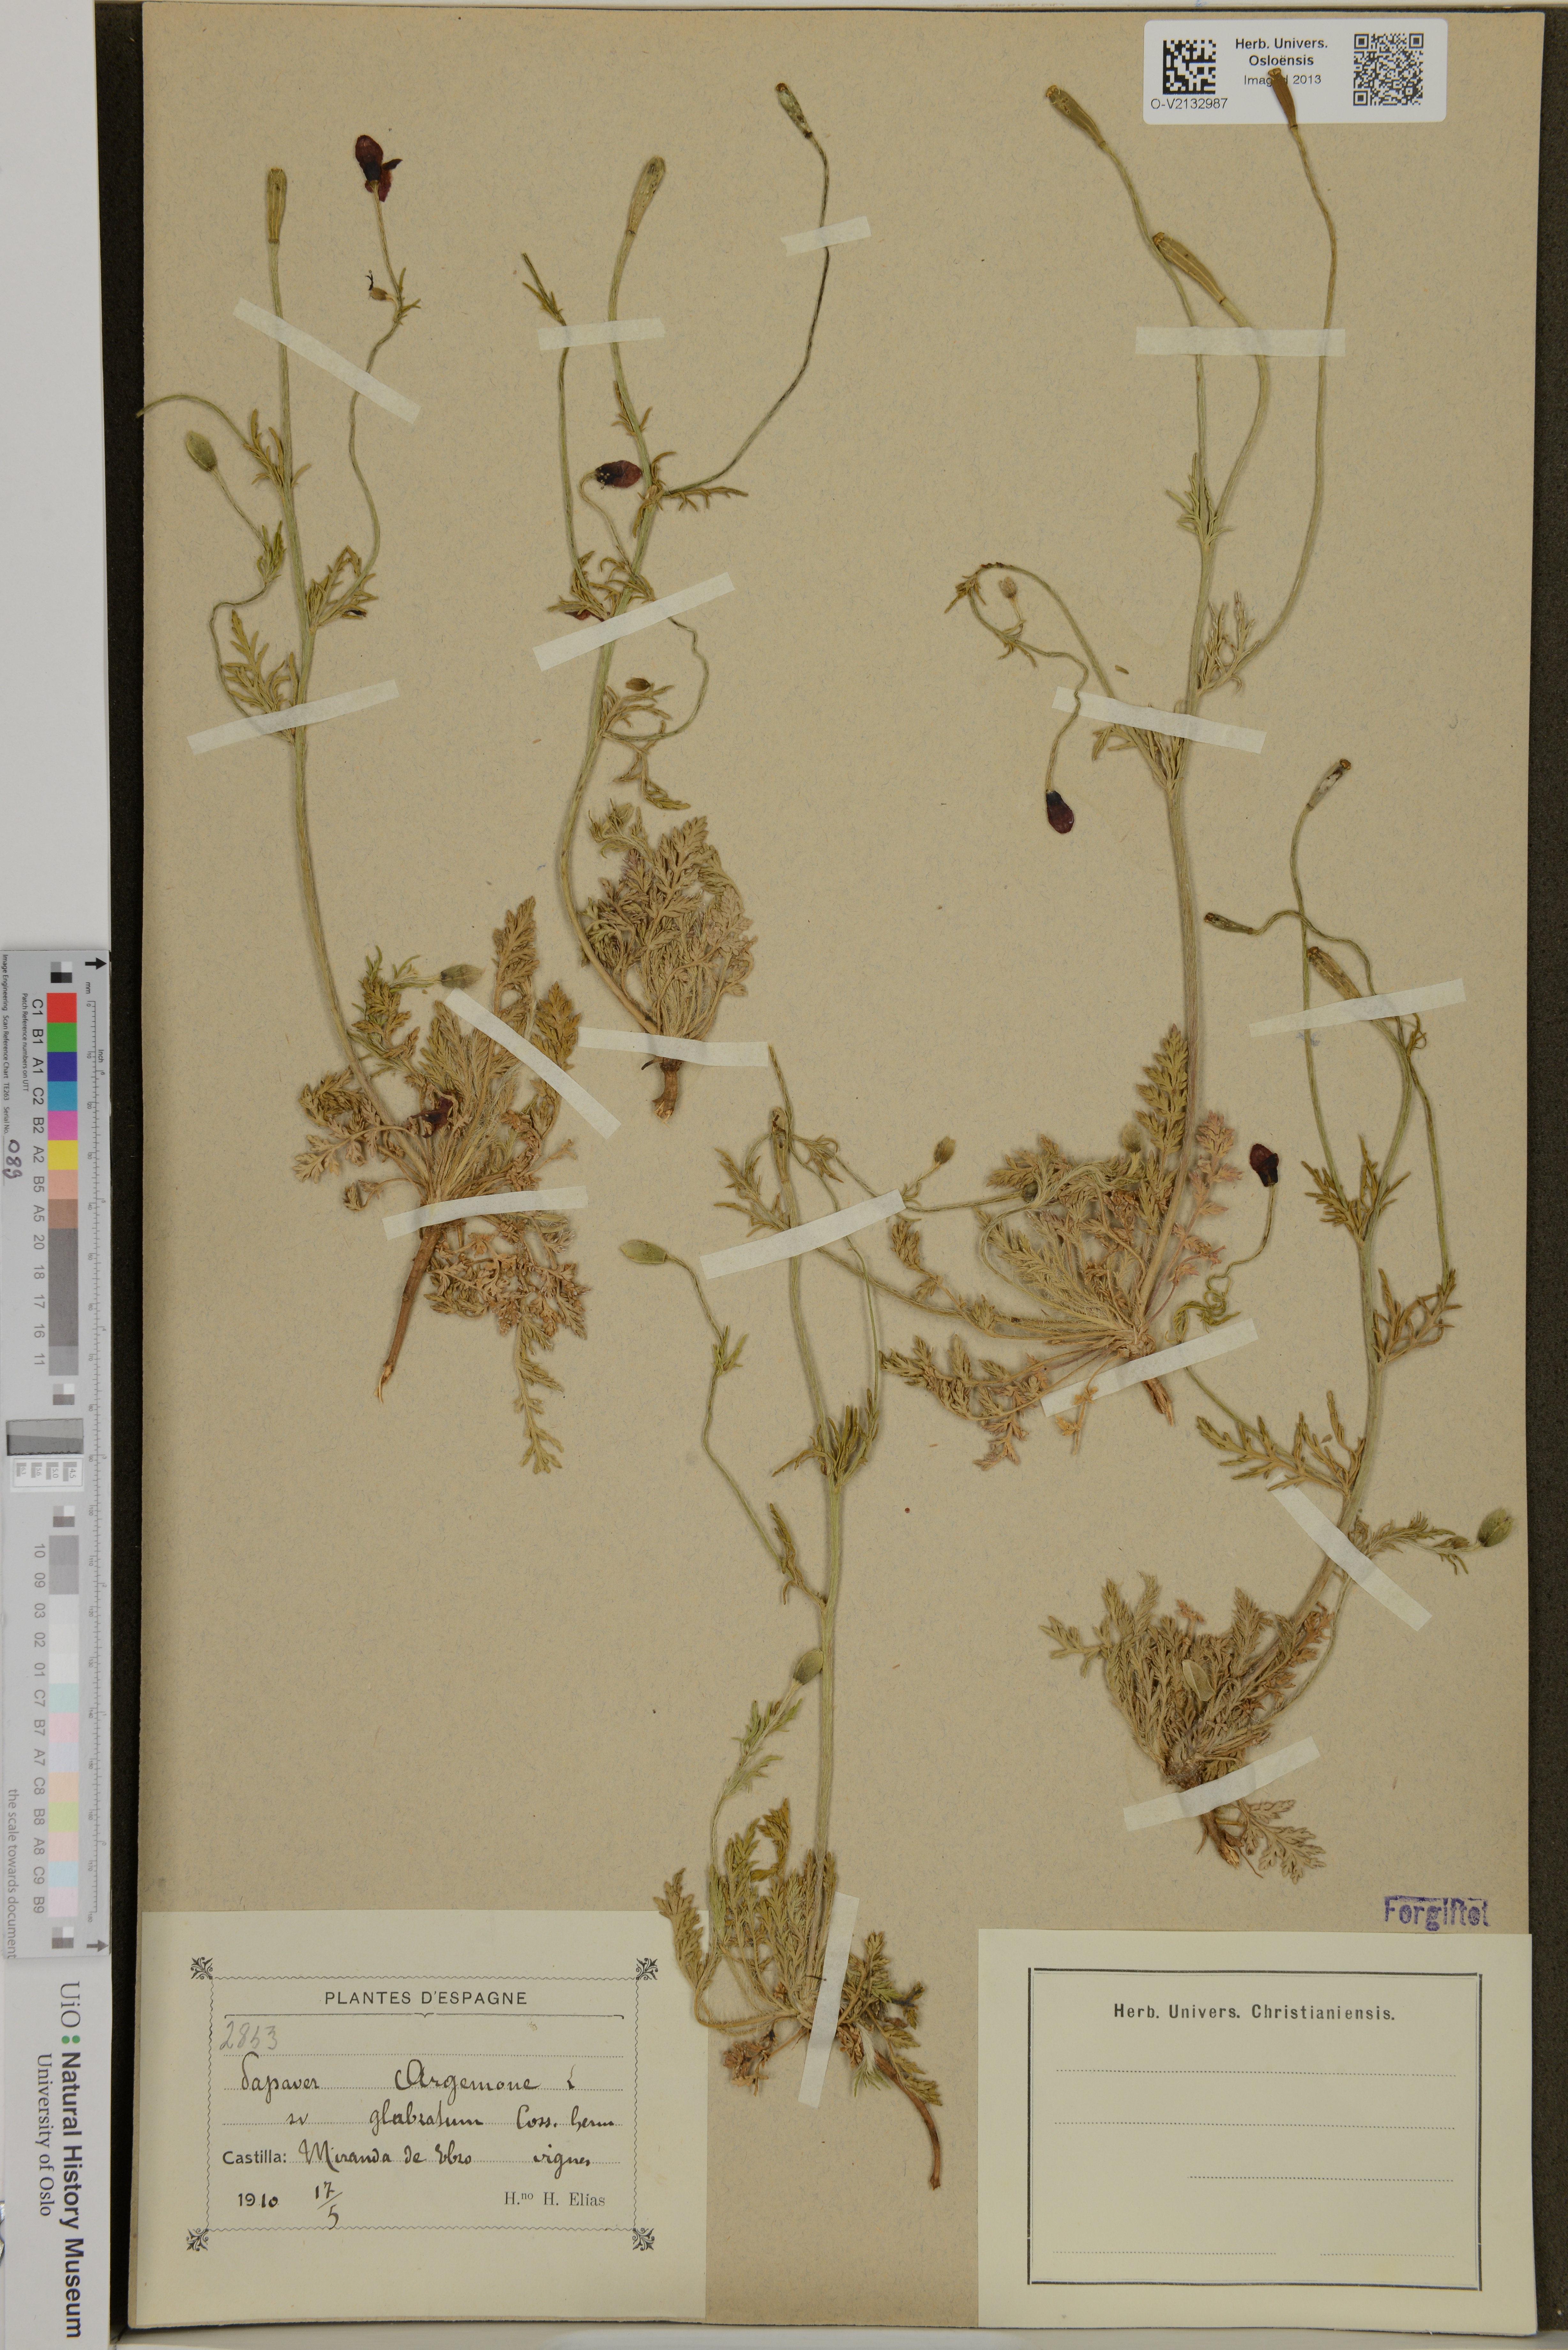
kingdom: Plantae
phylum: Tracheophyta
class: Magnoliopsida
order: Ranunculales
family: Papaveraceae
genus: Roemeria
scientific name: Roemeria argemone
